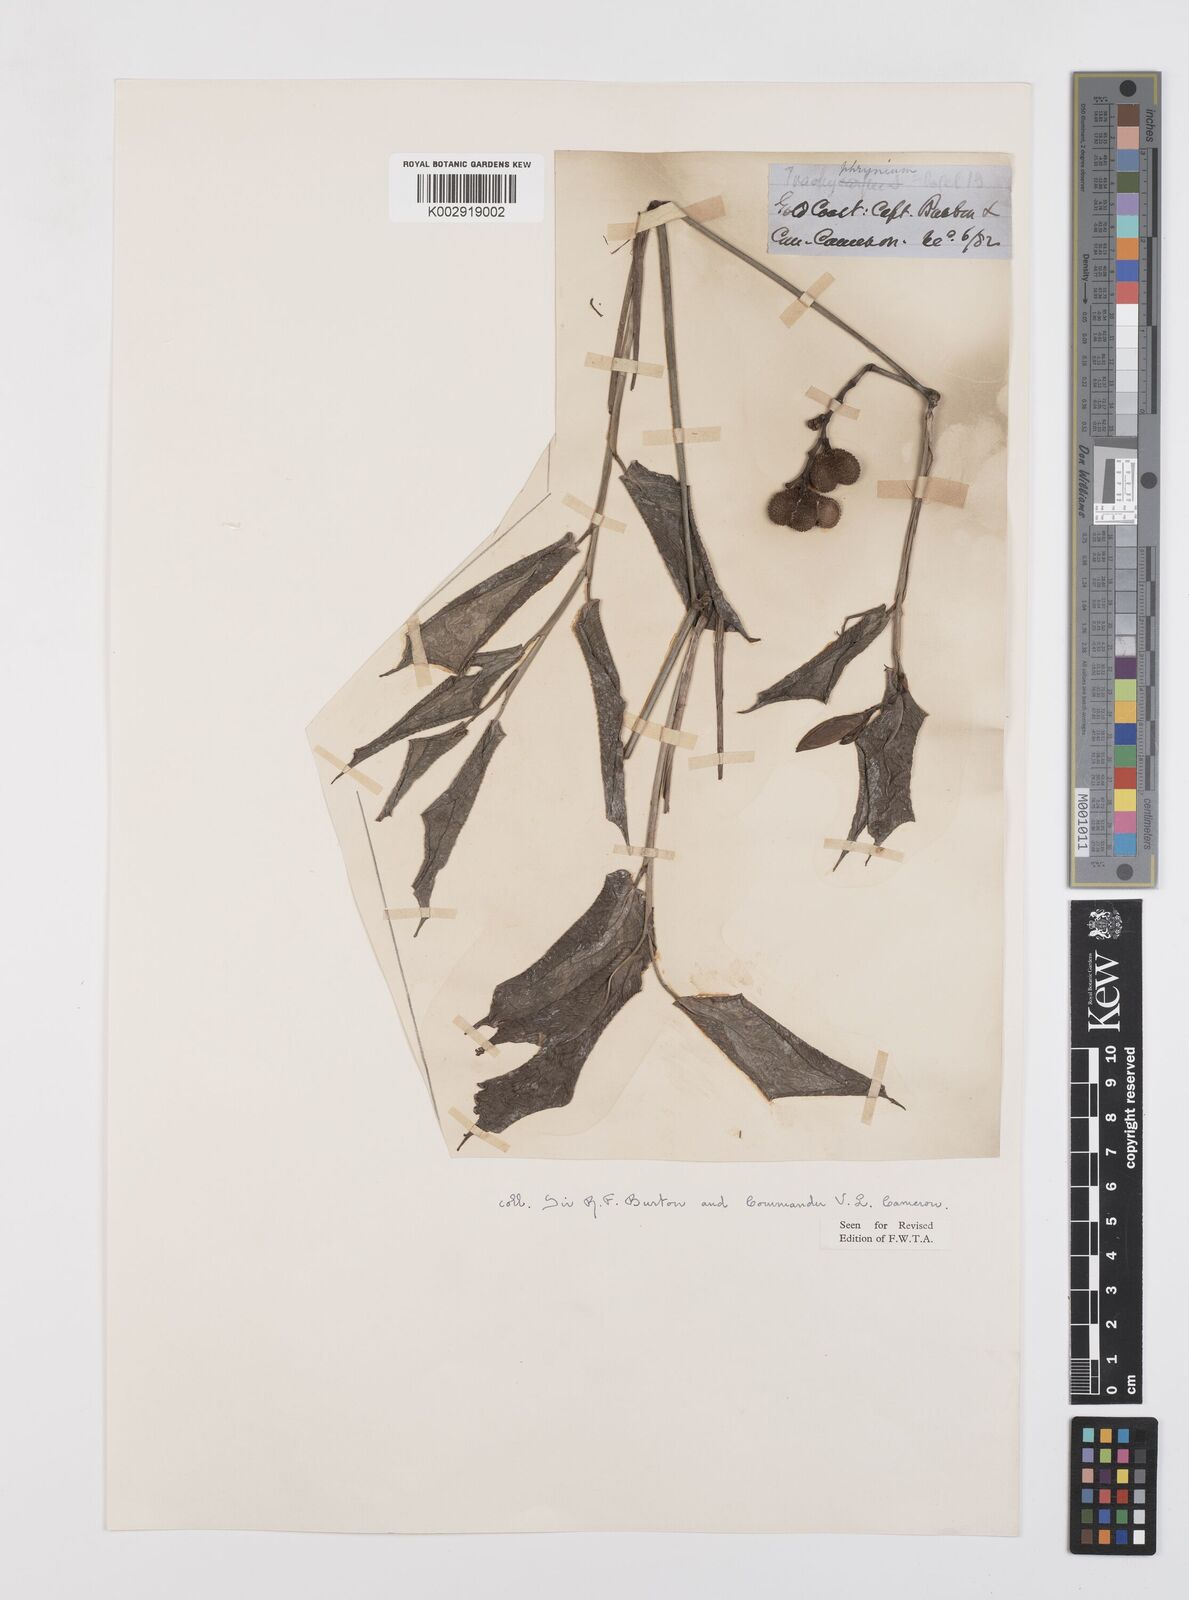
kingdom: Plantae
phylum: Tracheophyta
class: Liliopsida
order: Zingiberales
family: Marantaceae
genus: Trachyphrynium
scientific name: Trachyphrynium braunianum
